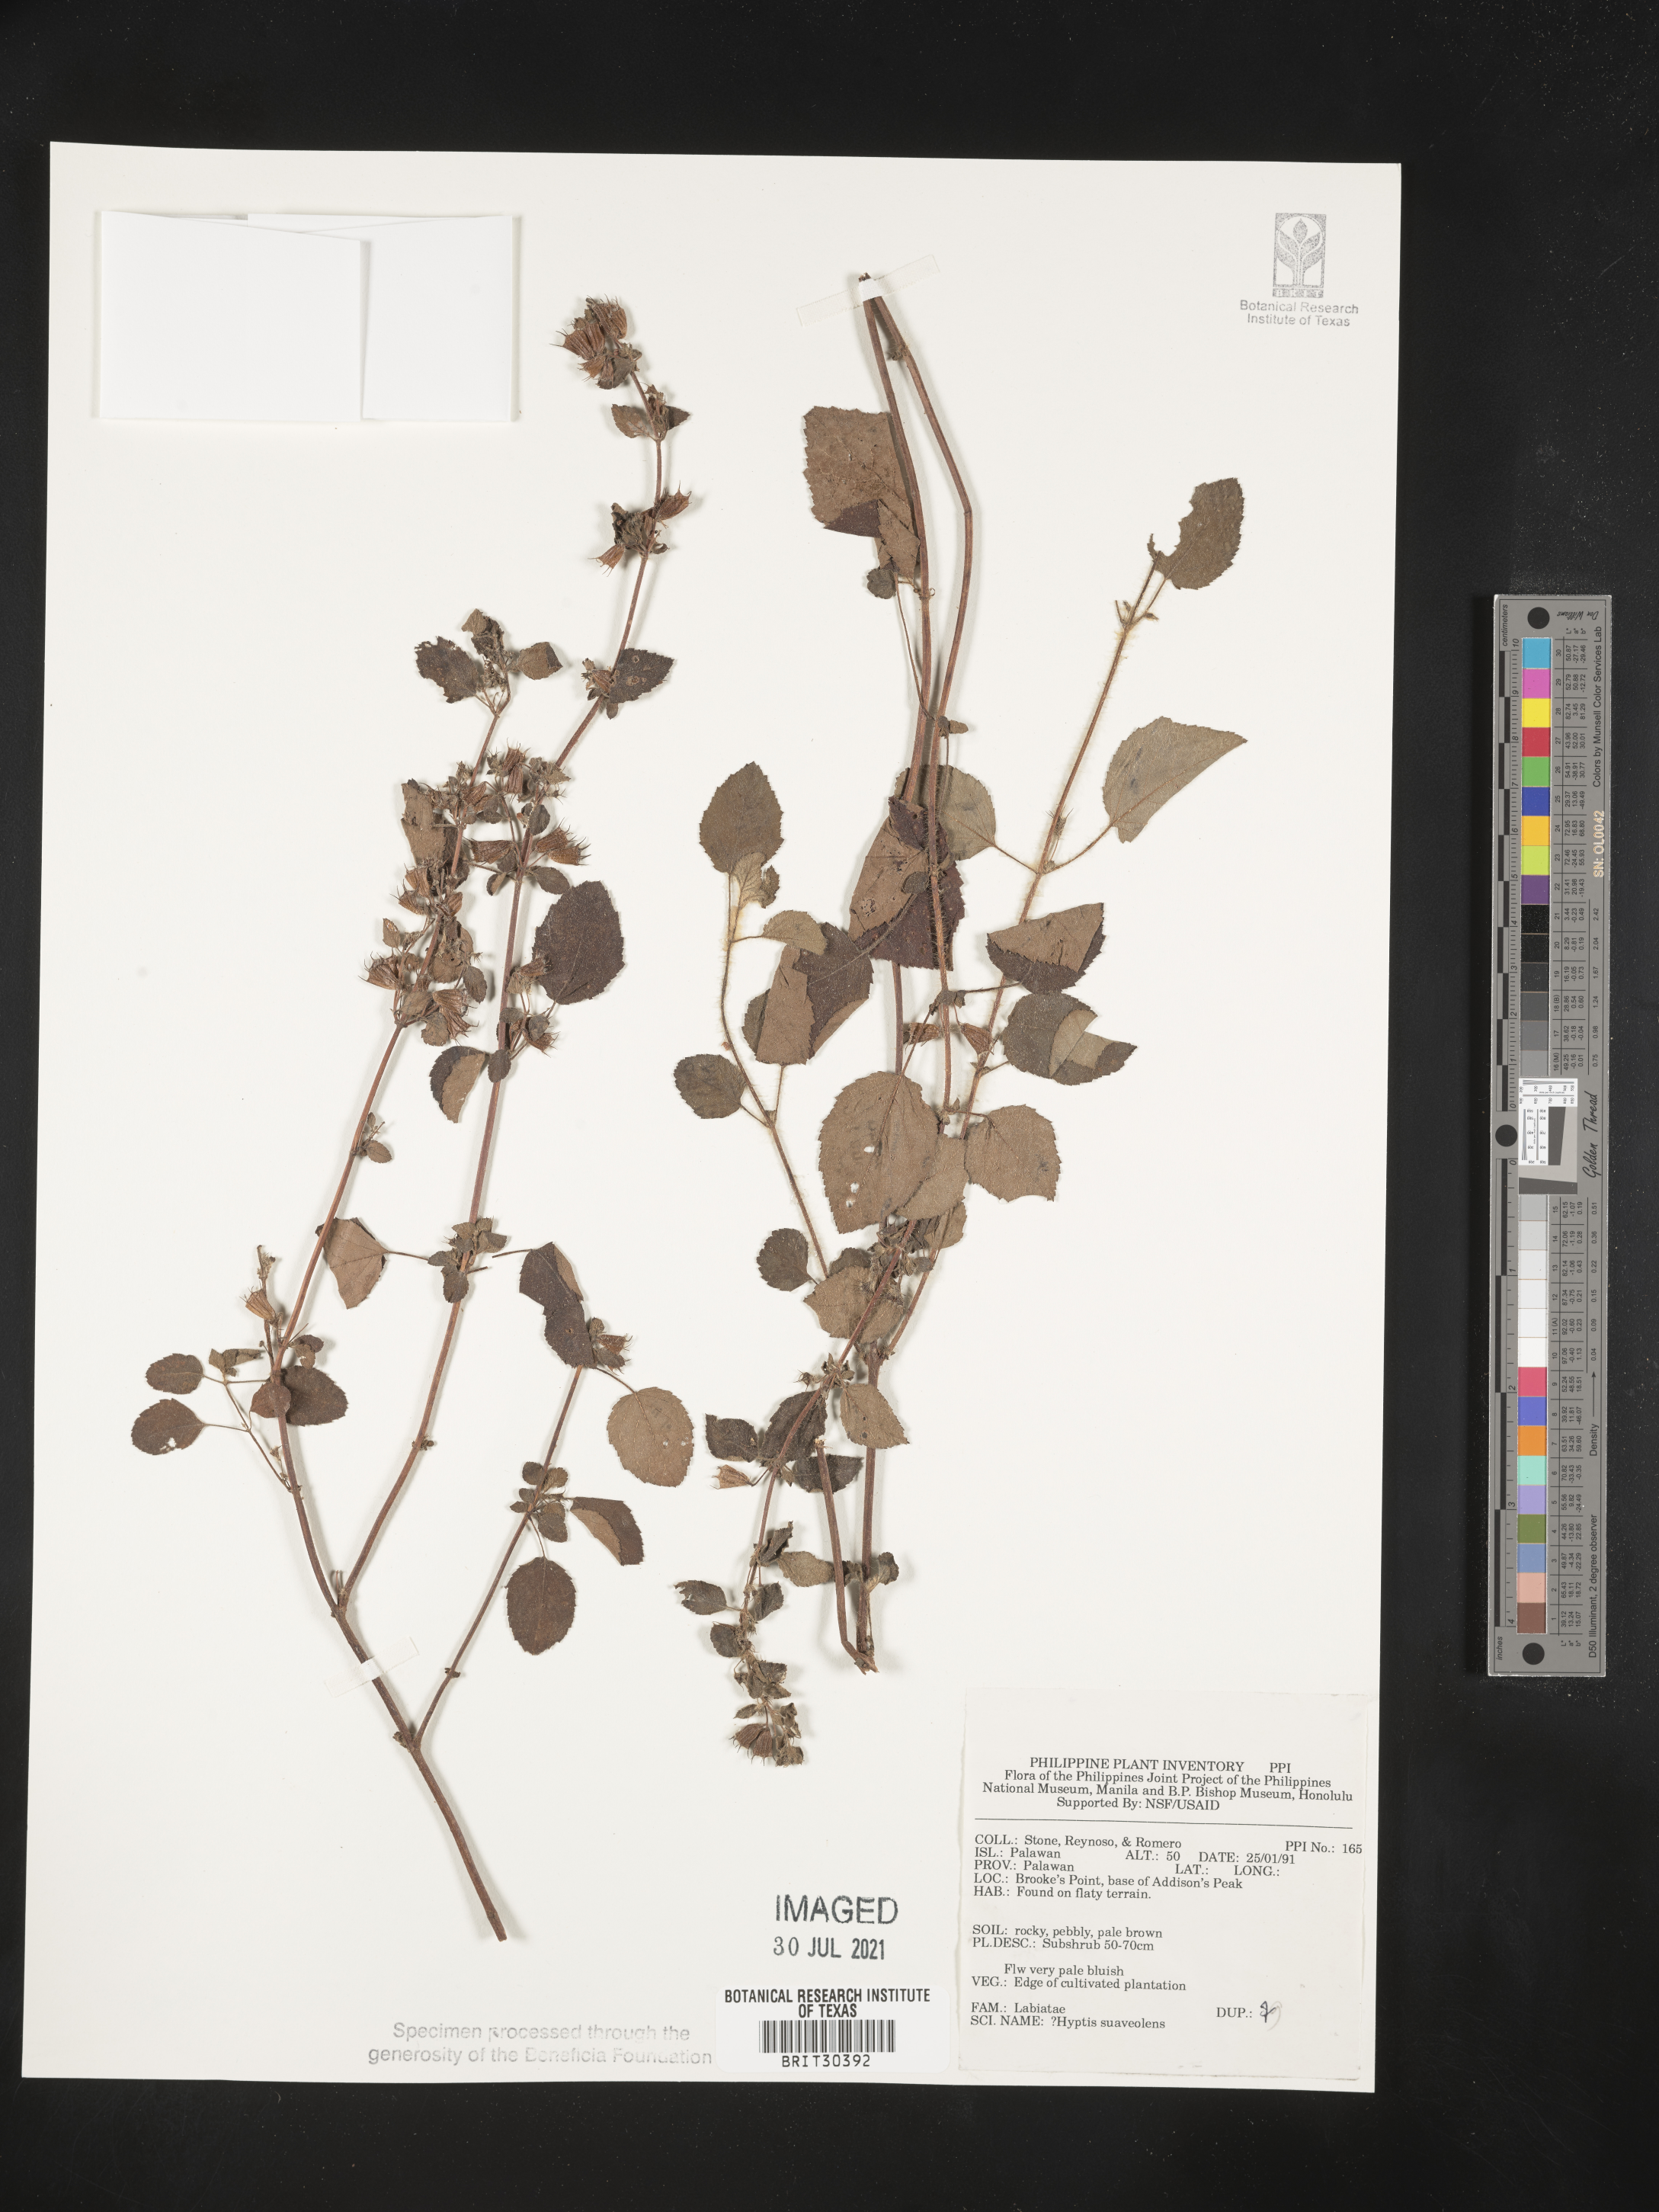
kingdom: Plantae
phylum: Tracheophyta
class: Magnoliopsida
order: Lamiales
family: Lamiaceae
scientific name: Lamiaceae
